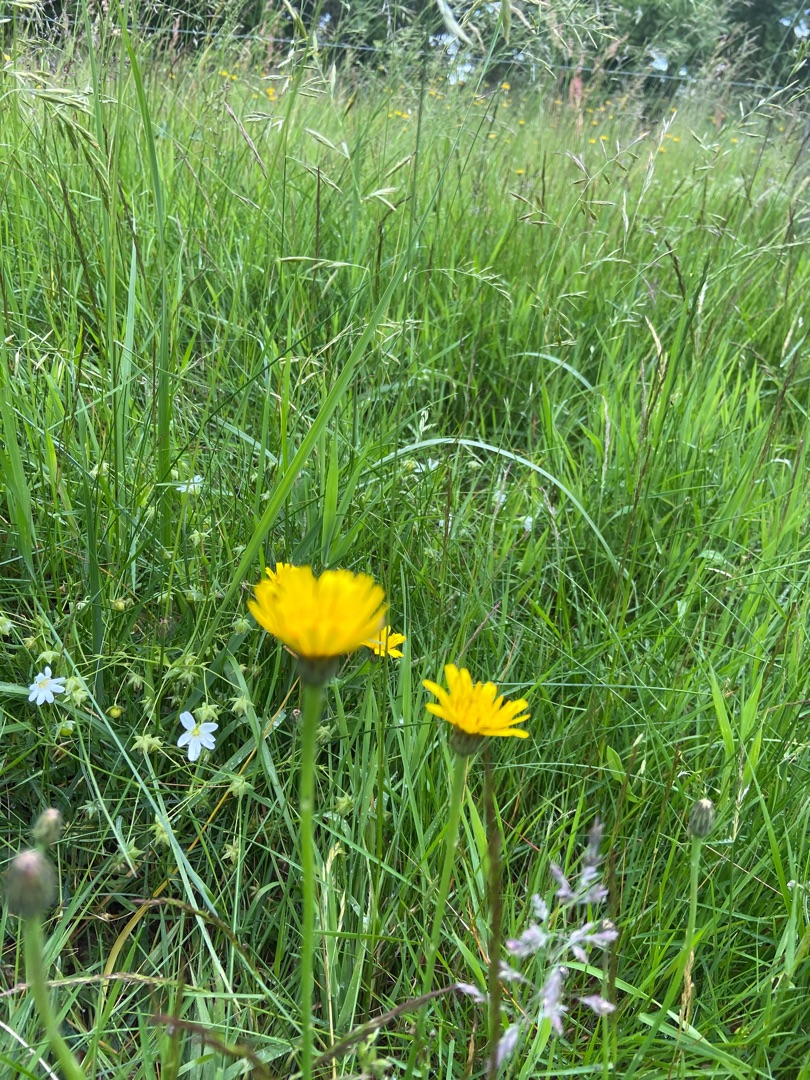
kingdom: Plantae
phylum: Tracheophyta
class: Magnoliopsida
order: Asterales
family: Asteraceae
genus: Hypochaeris
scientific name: Hypochaeris radicata
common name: Almindelig kongepen
